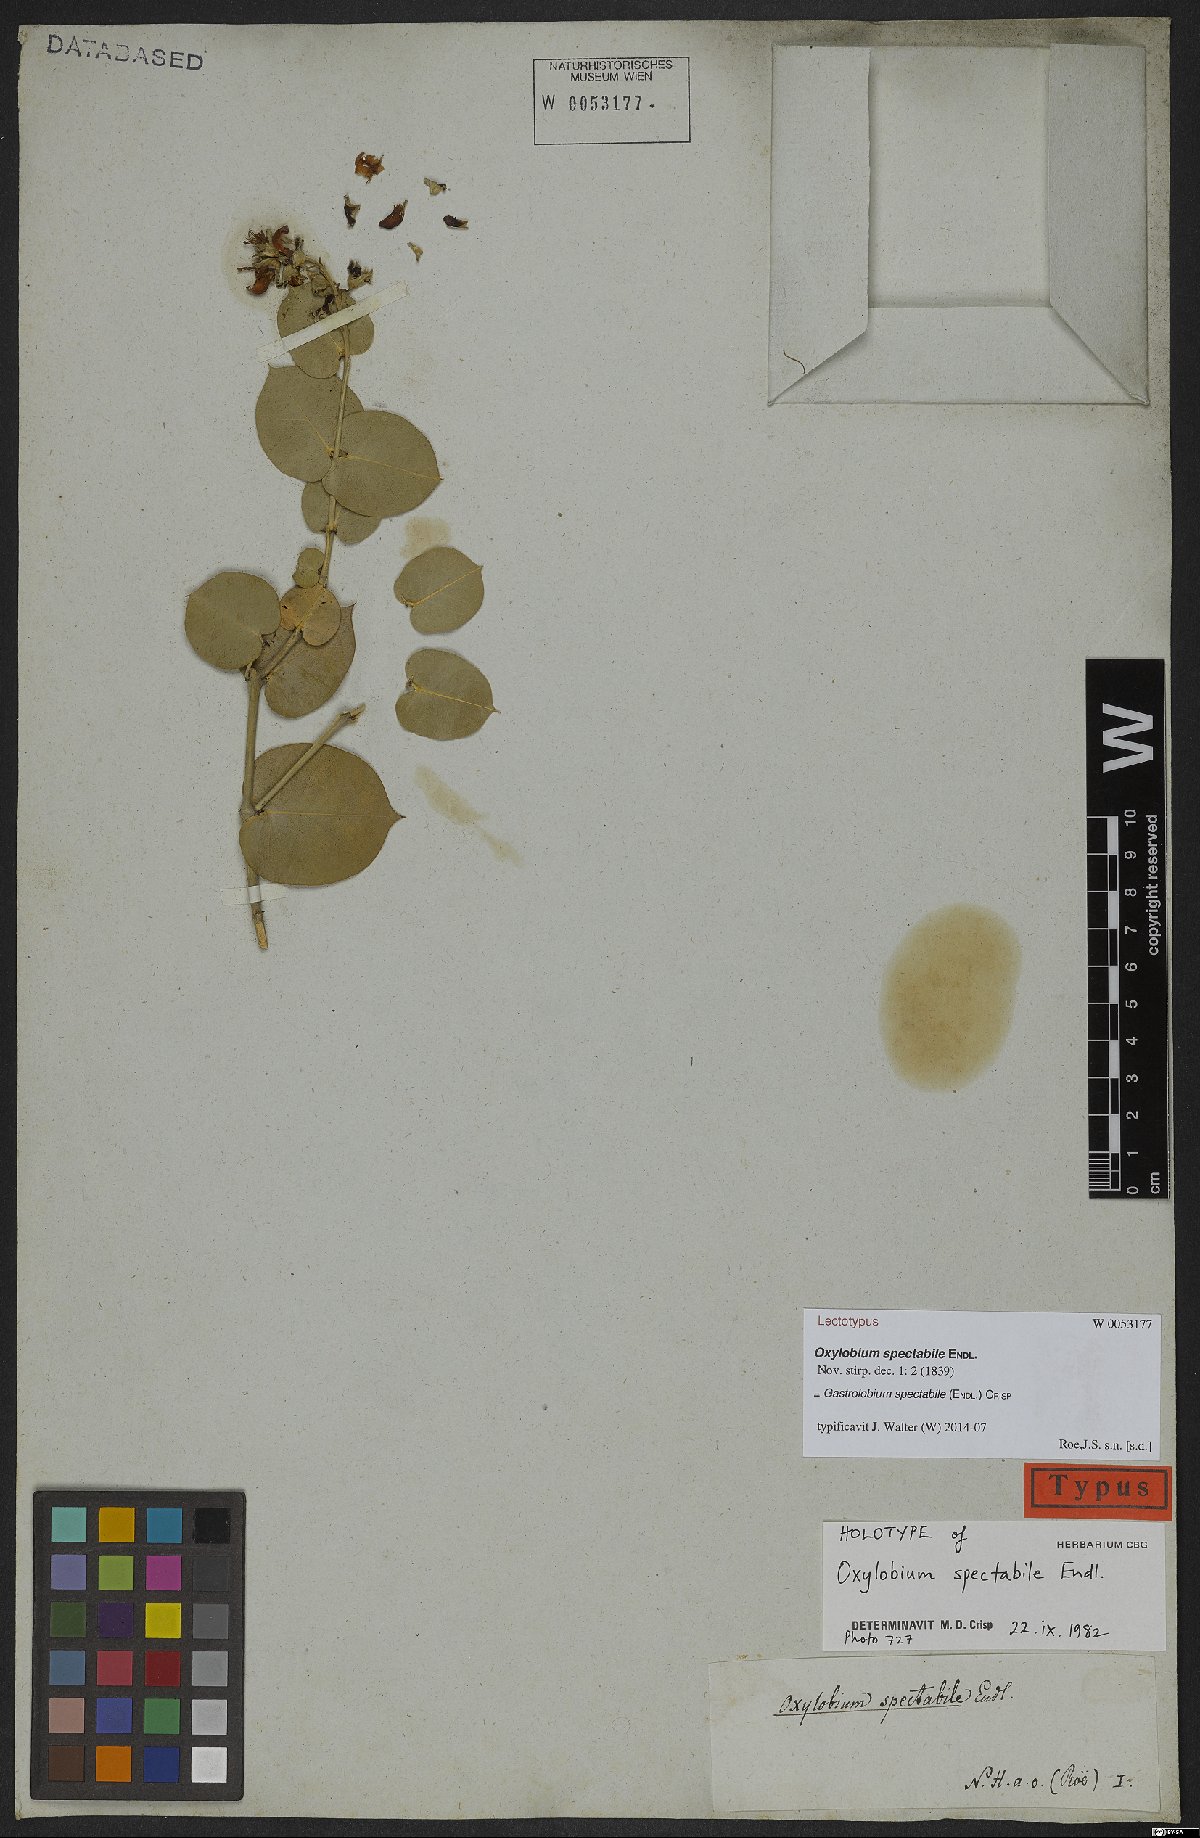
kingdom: Plantae
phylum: Tracheophyta
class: Magnoliopsida
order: Fabales
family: Fabaceae
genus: Gastrolobium
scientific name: Gastrolobium spectabile
